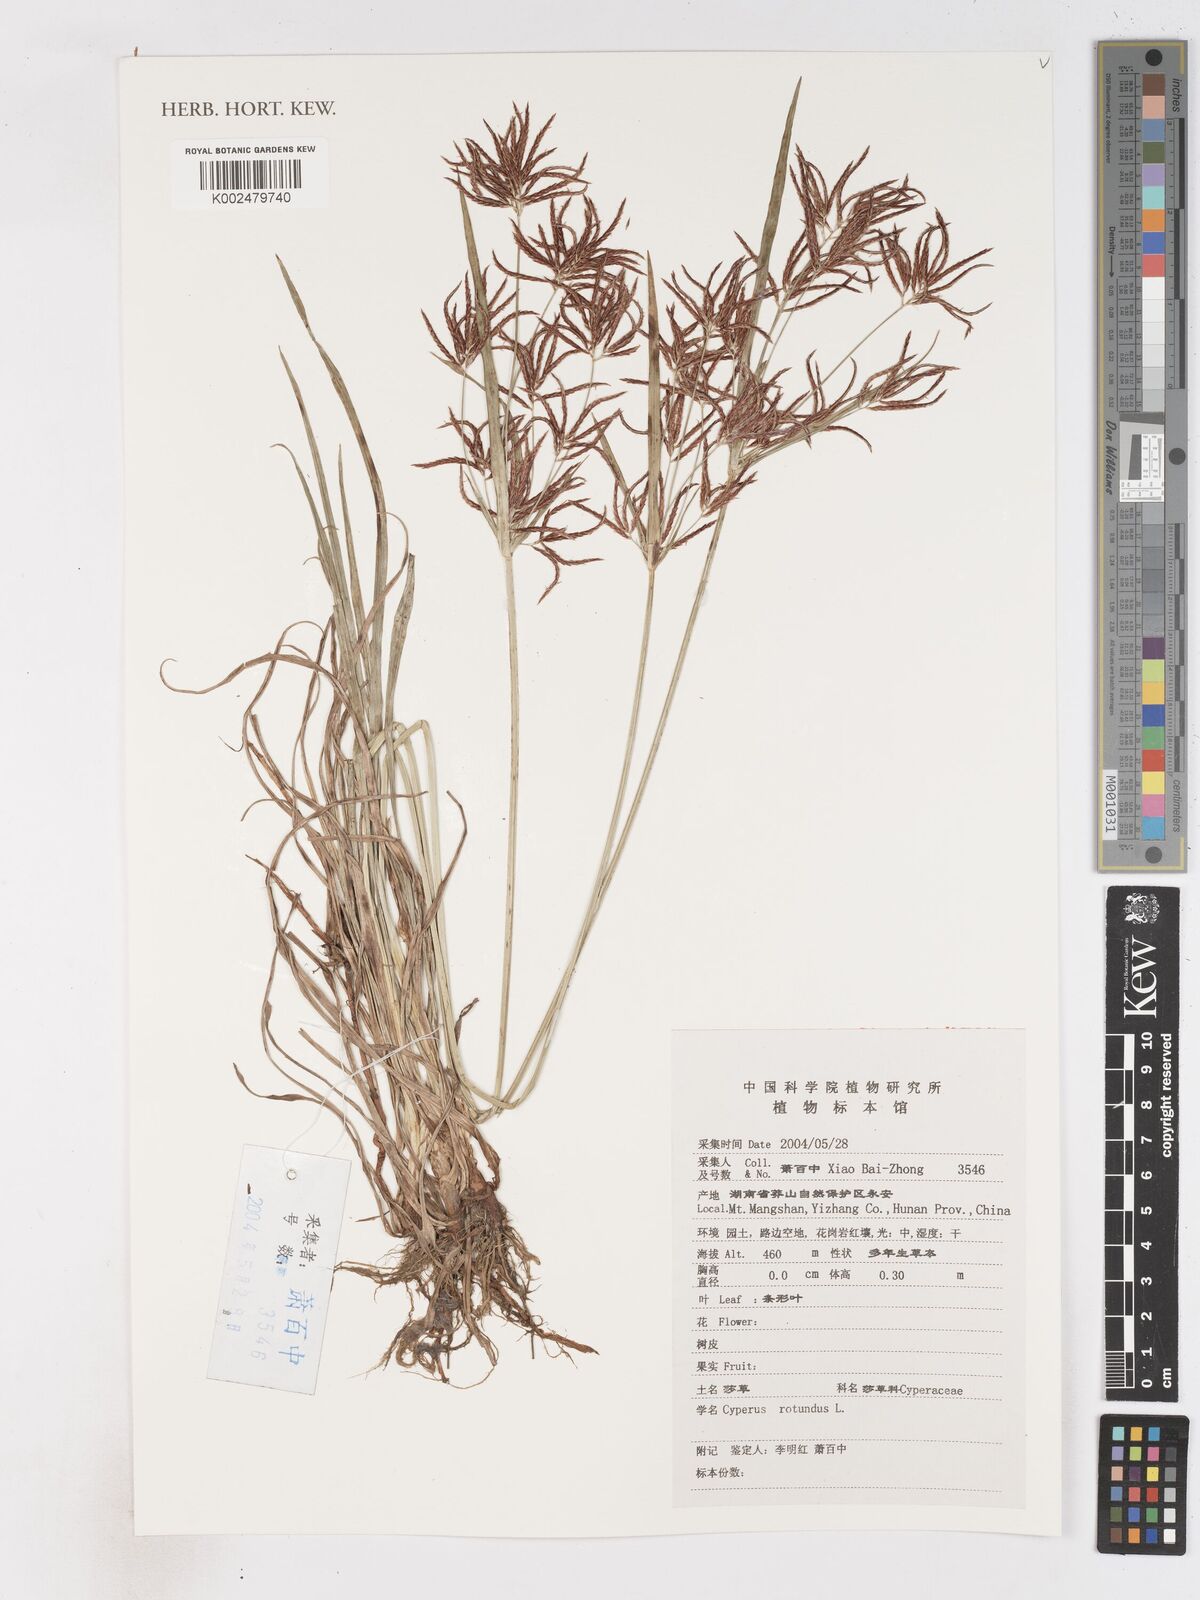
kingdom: Plantae
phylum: Tracheophyta
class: Liliopsida
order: Poales
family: Cyperaceae
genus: Cyperus
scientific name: Cyperus rotundus
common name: Nutgrass
